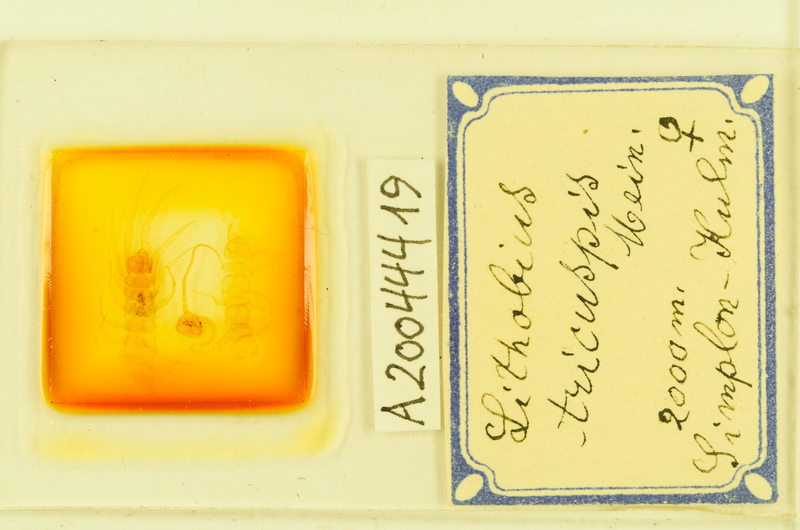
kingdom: Animalia
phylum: Arthropoda
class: Chilopoda
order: Lithobiomorpha
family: Lithobiidae
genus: Lithobius
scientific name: Lithobius tricuspis
